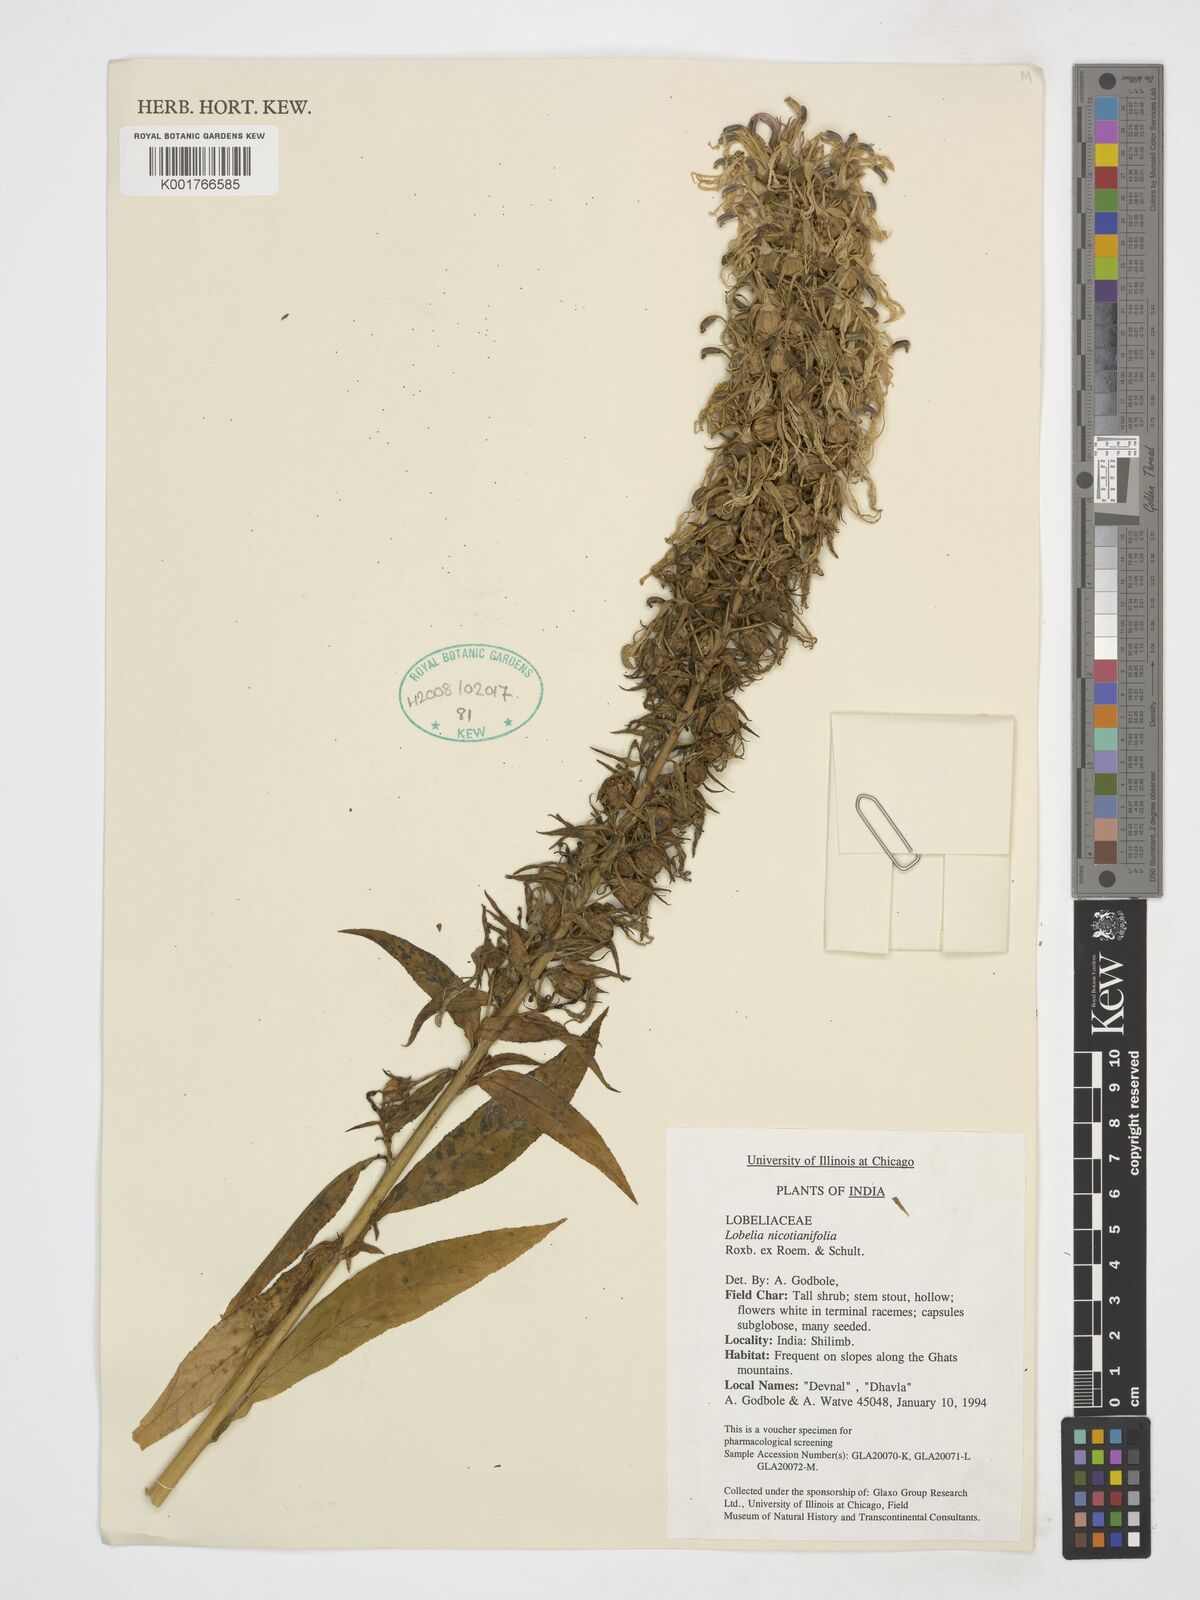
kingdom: Plantae
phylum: Tracheophyta
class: Magnoliopsida
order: Asterales
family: Campanulaceae
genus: Lobelia
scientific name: Lobelia nicotianifolia
